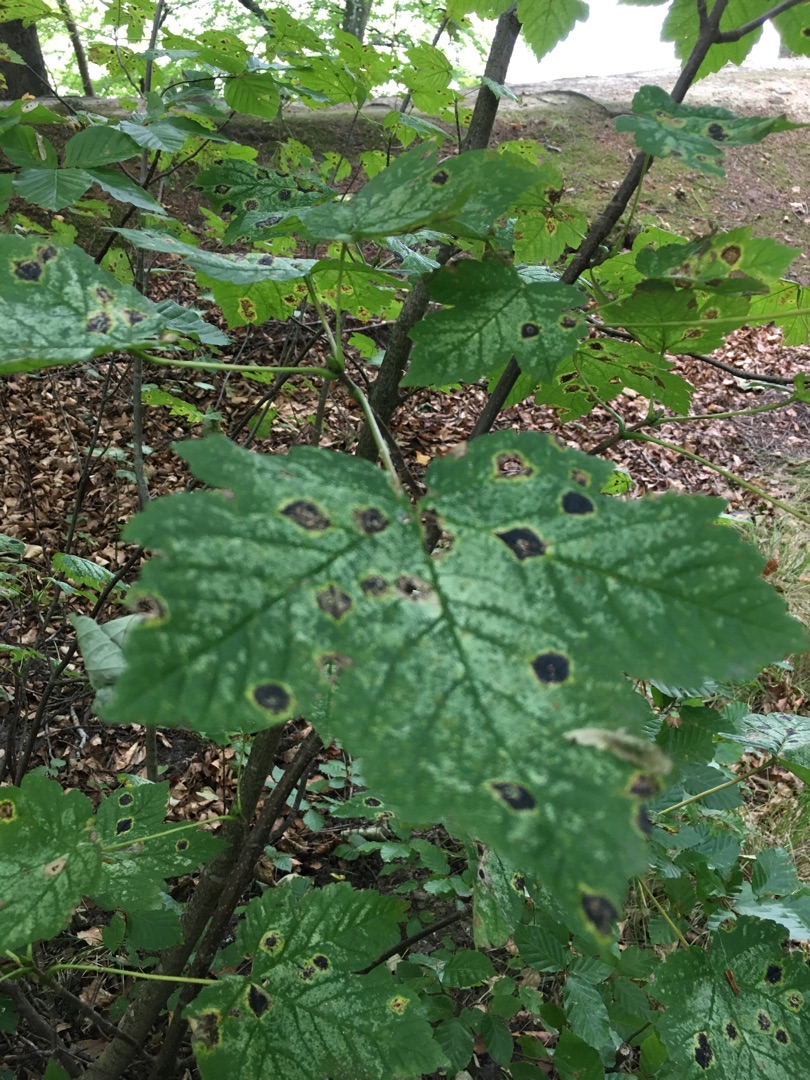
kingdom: Plantae
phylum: Tracheophyta
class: Magnoliopsida
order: Sapindales
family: Sapindaceae
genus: Acer
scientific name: Acer pseudoplatanus
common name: Ahorn
